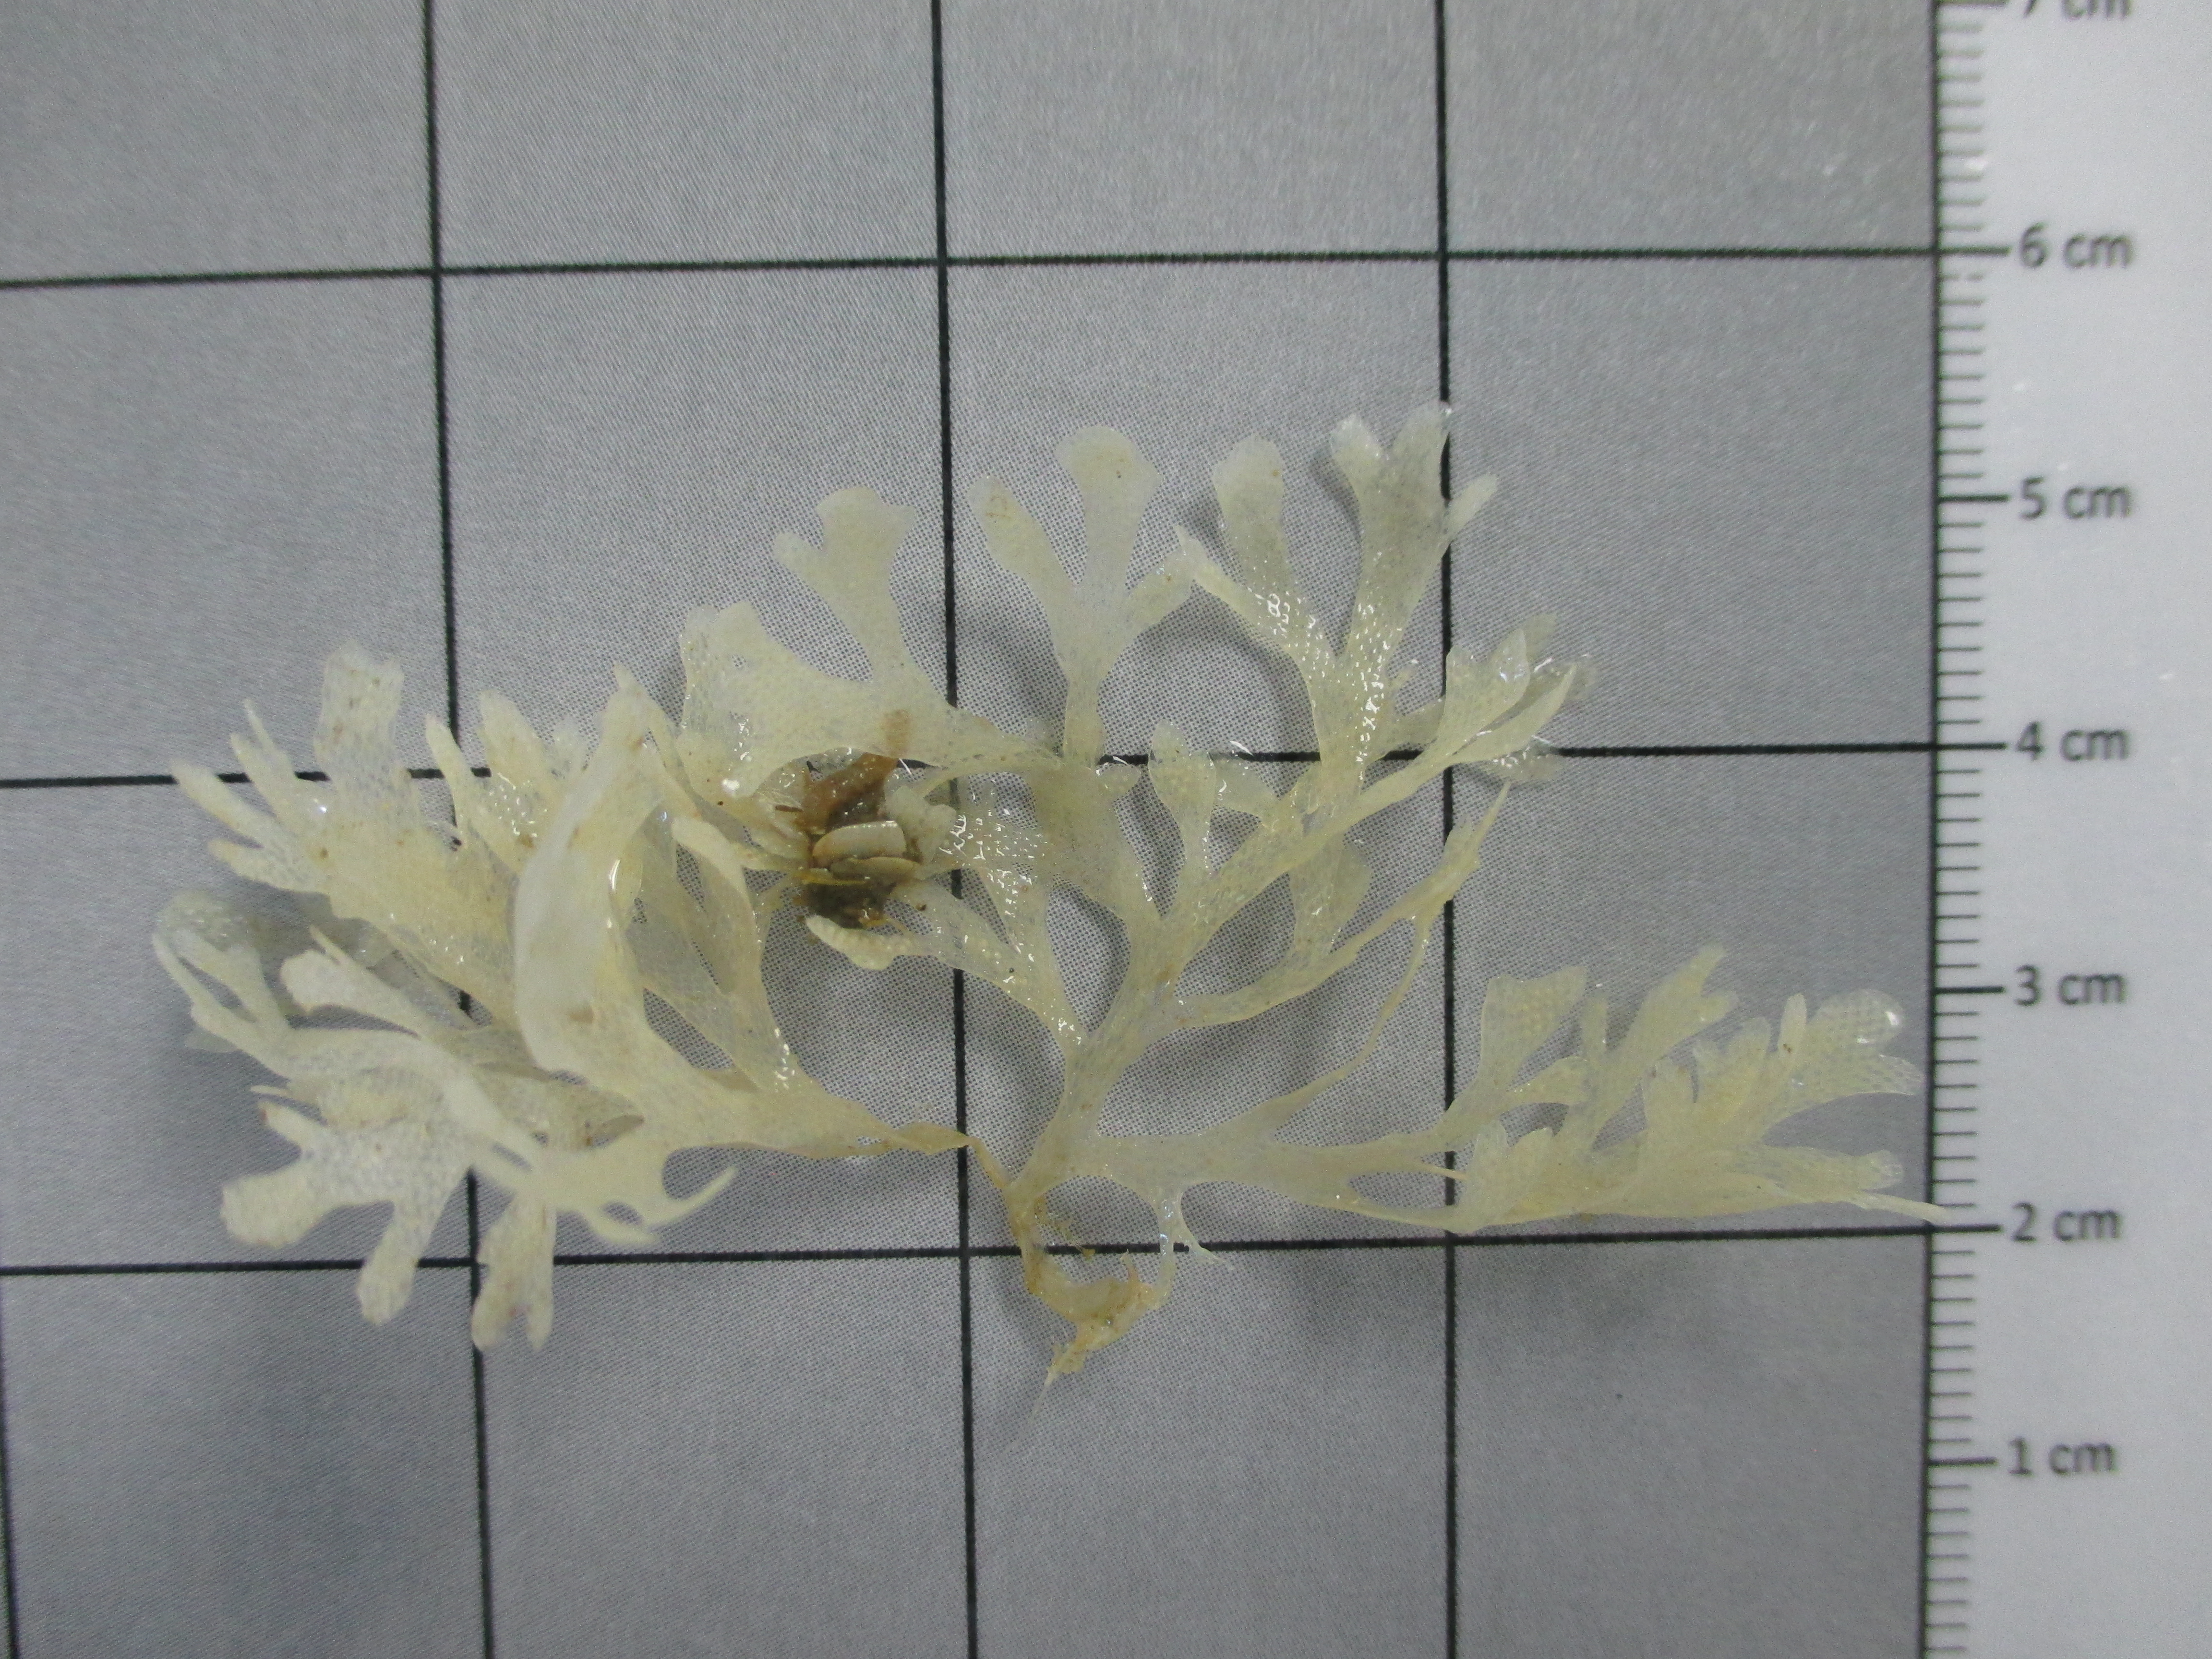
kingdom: Animalia
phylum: Bryozoa
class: Gymnolaemata
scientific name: Gymnolaemata
